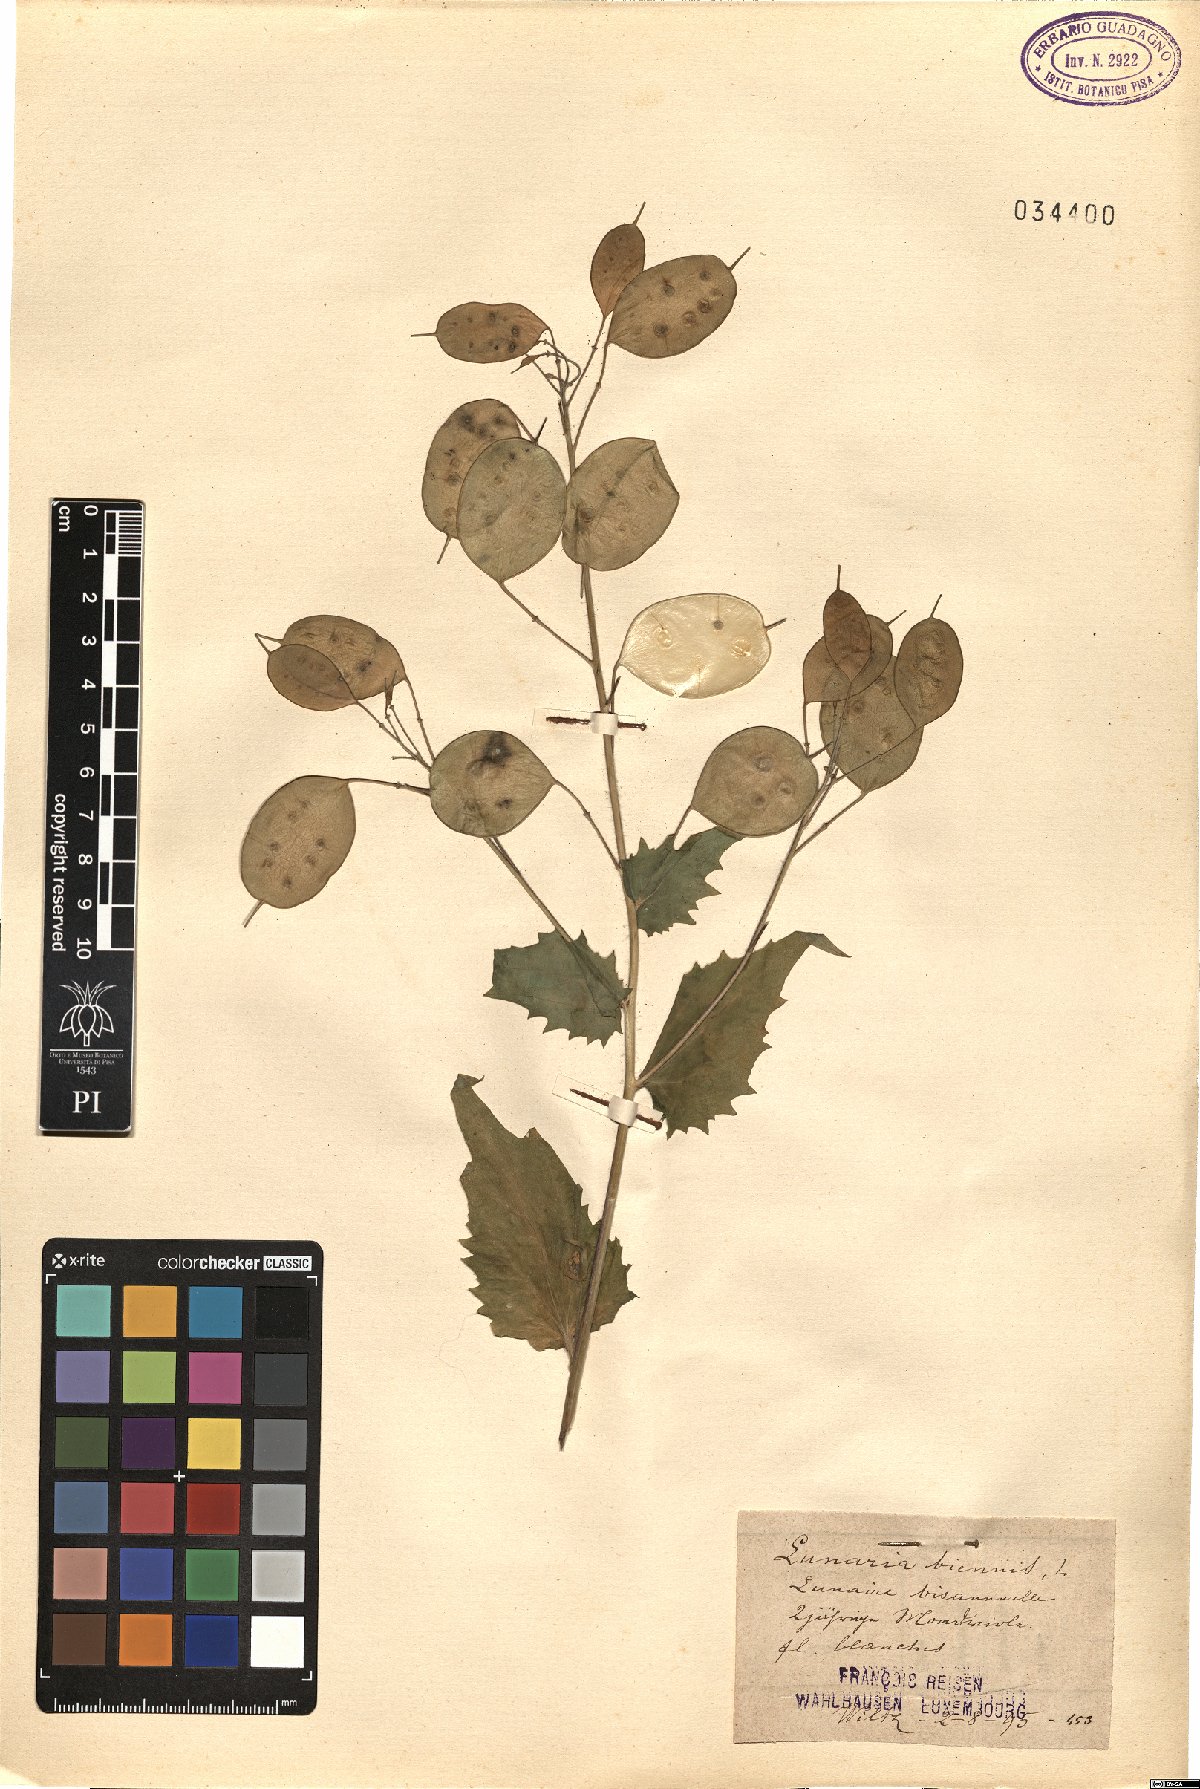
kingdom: Plantae
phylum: Tracheophyta
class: Magnoliopsida
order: Brassicales
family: Brassicaceae
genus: Lunaria
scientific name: Lunaria annua
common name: Honesty
